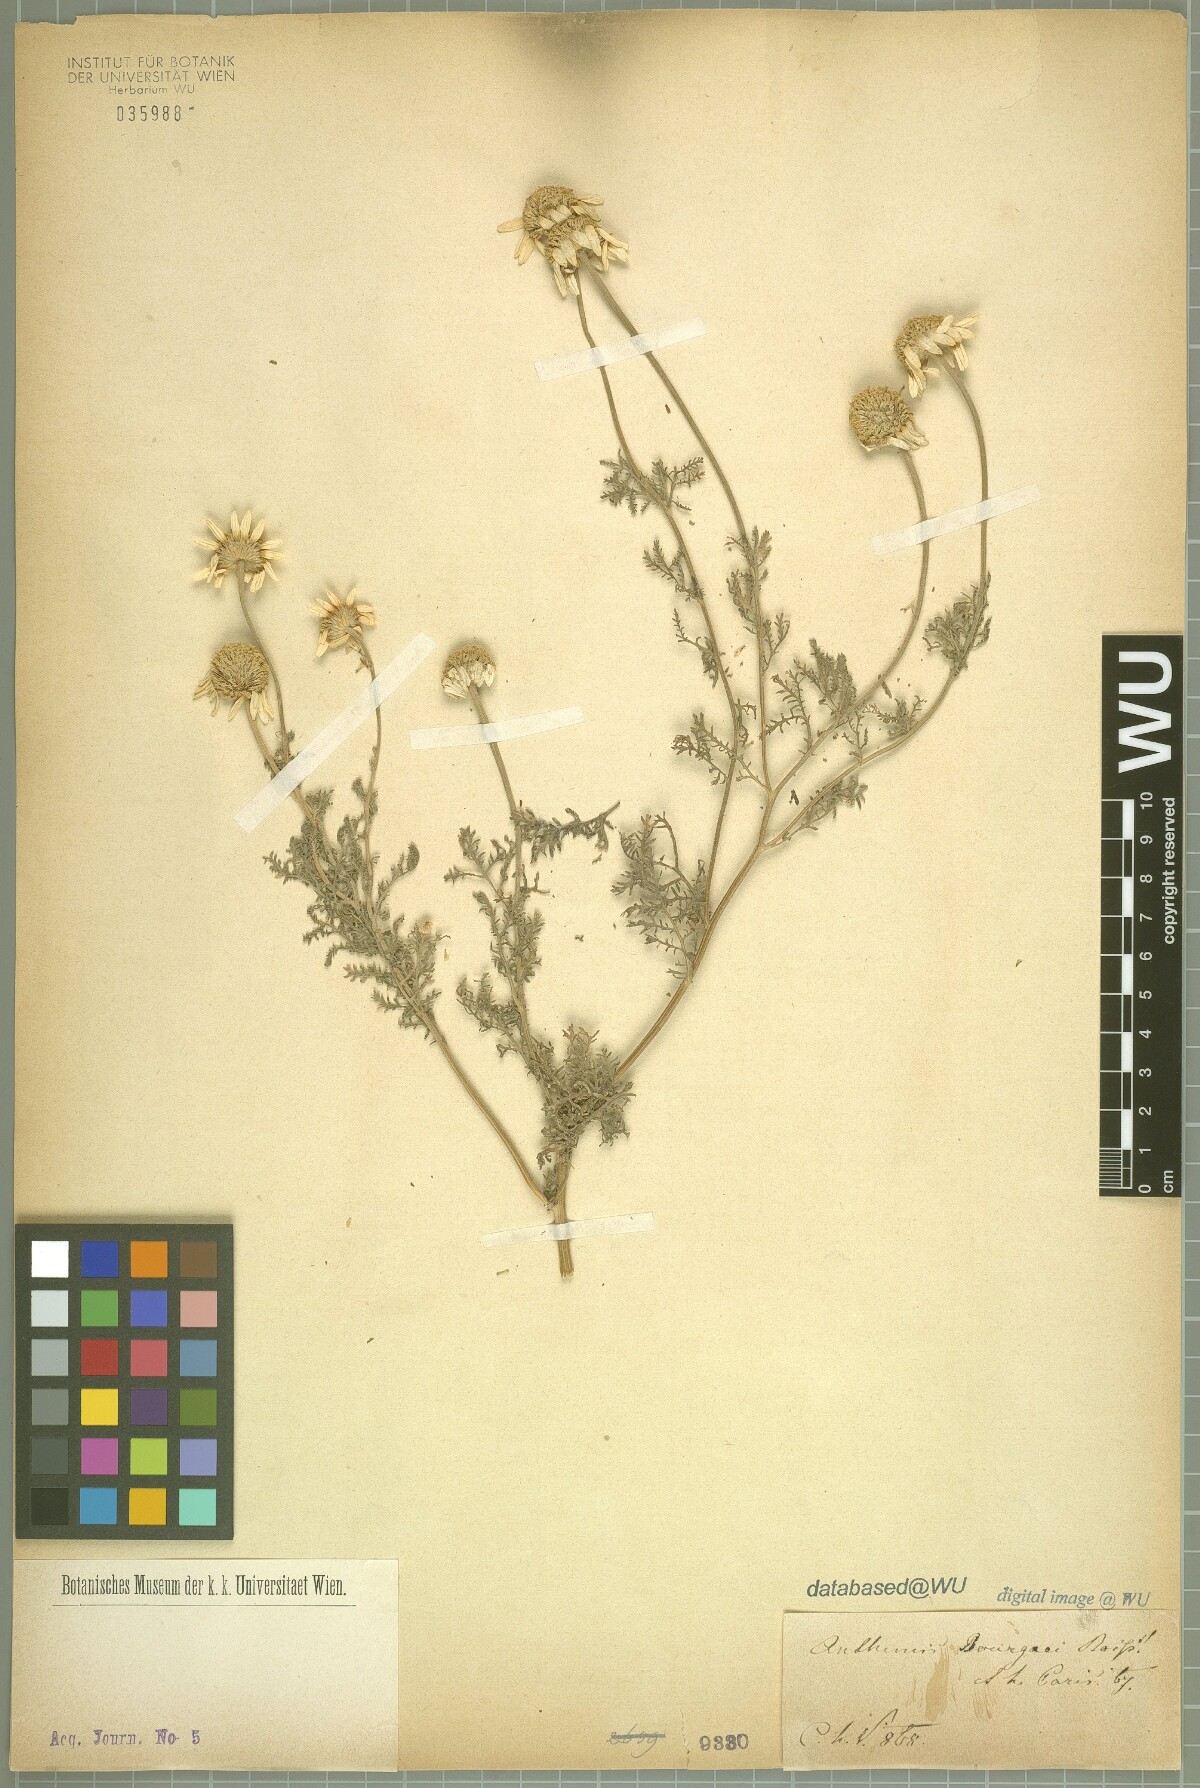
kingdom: Plantae
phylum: Tracheophyta
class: Magnoliopsida
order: Asterales
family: Asteraceae
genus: Anthemis
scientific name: Anthemis bourgaei
